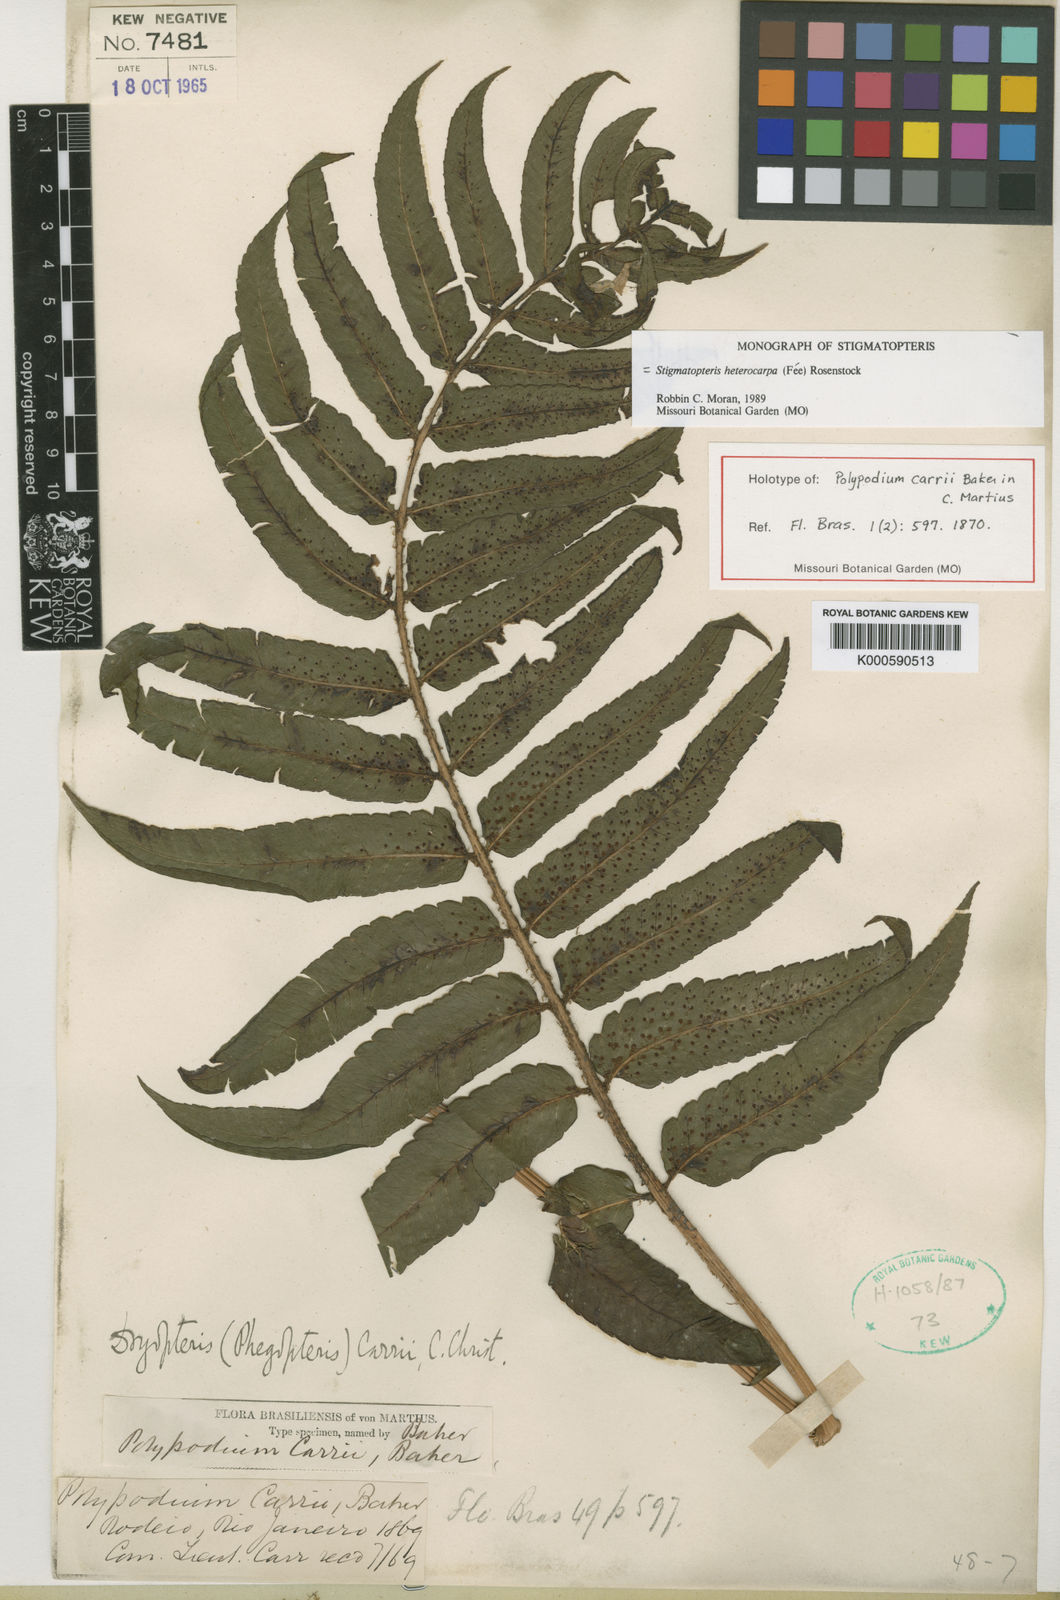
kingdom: Plantae
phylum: Tracheophyta
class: Polypodiopsida
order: Polypodiales
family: Dryopteridaceae
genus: Stigmatopteris
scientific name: Stigmatopteris
